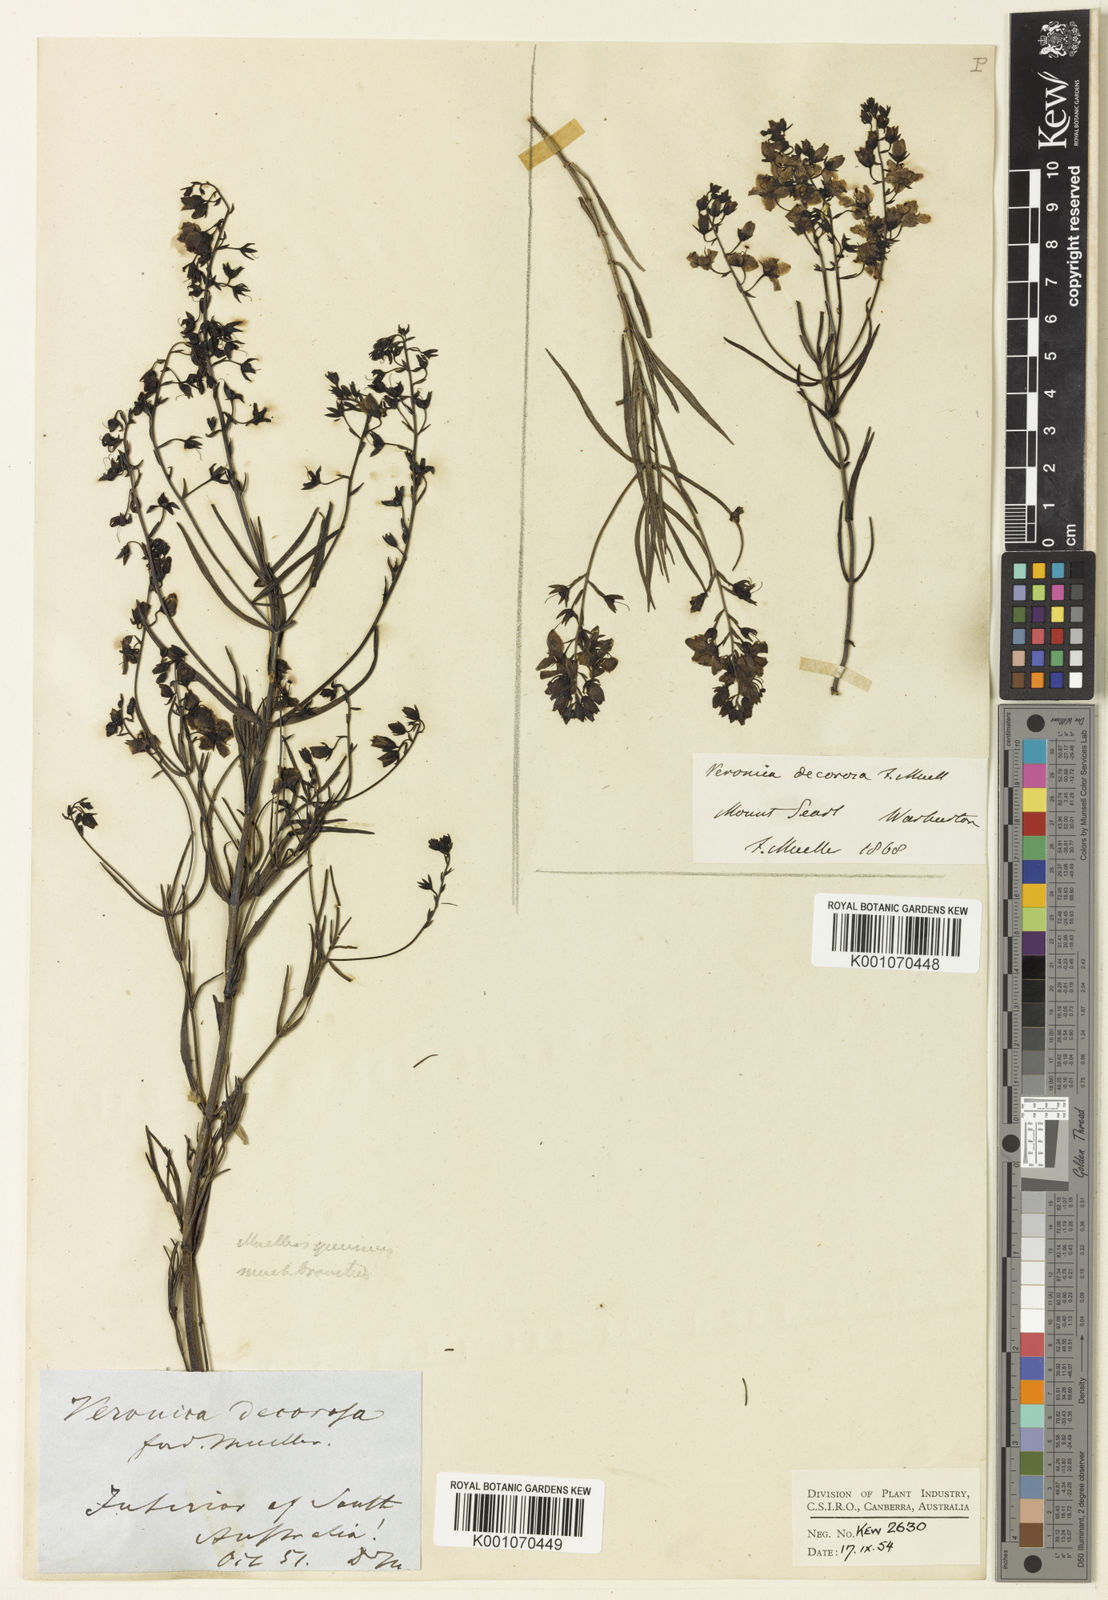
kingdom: Plantae
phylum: Tracheophyta
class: Magnoliopsida
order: Lamiales
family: Plantaginaceae
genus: Veronica
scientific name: Veronica
